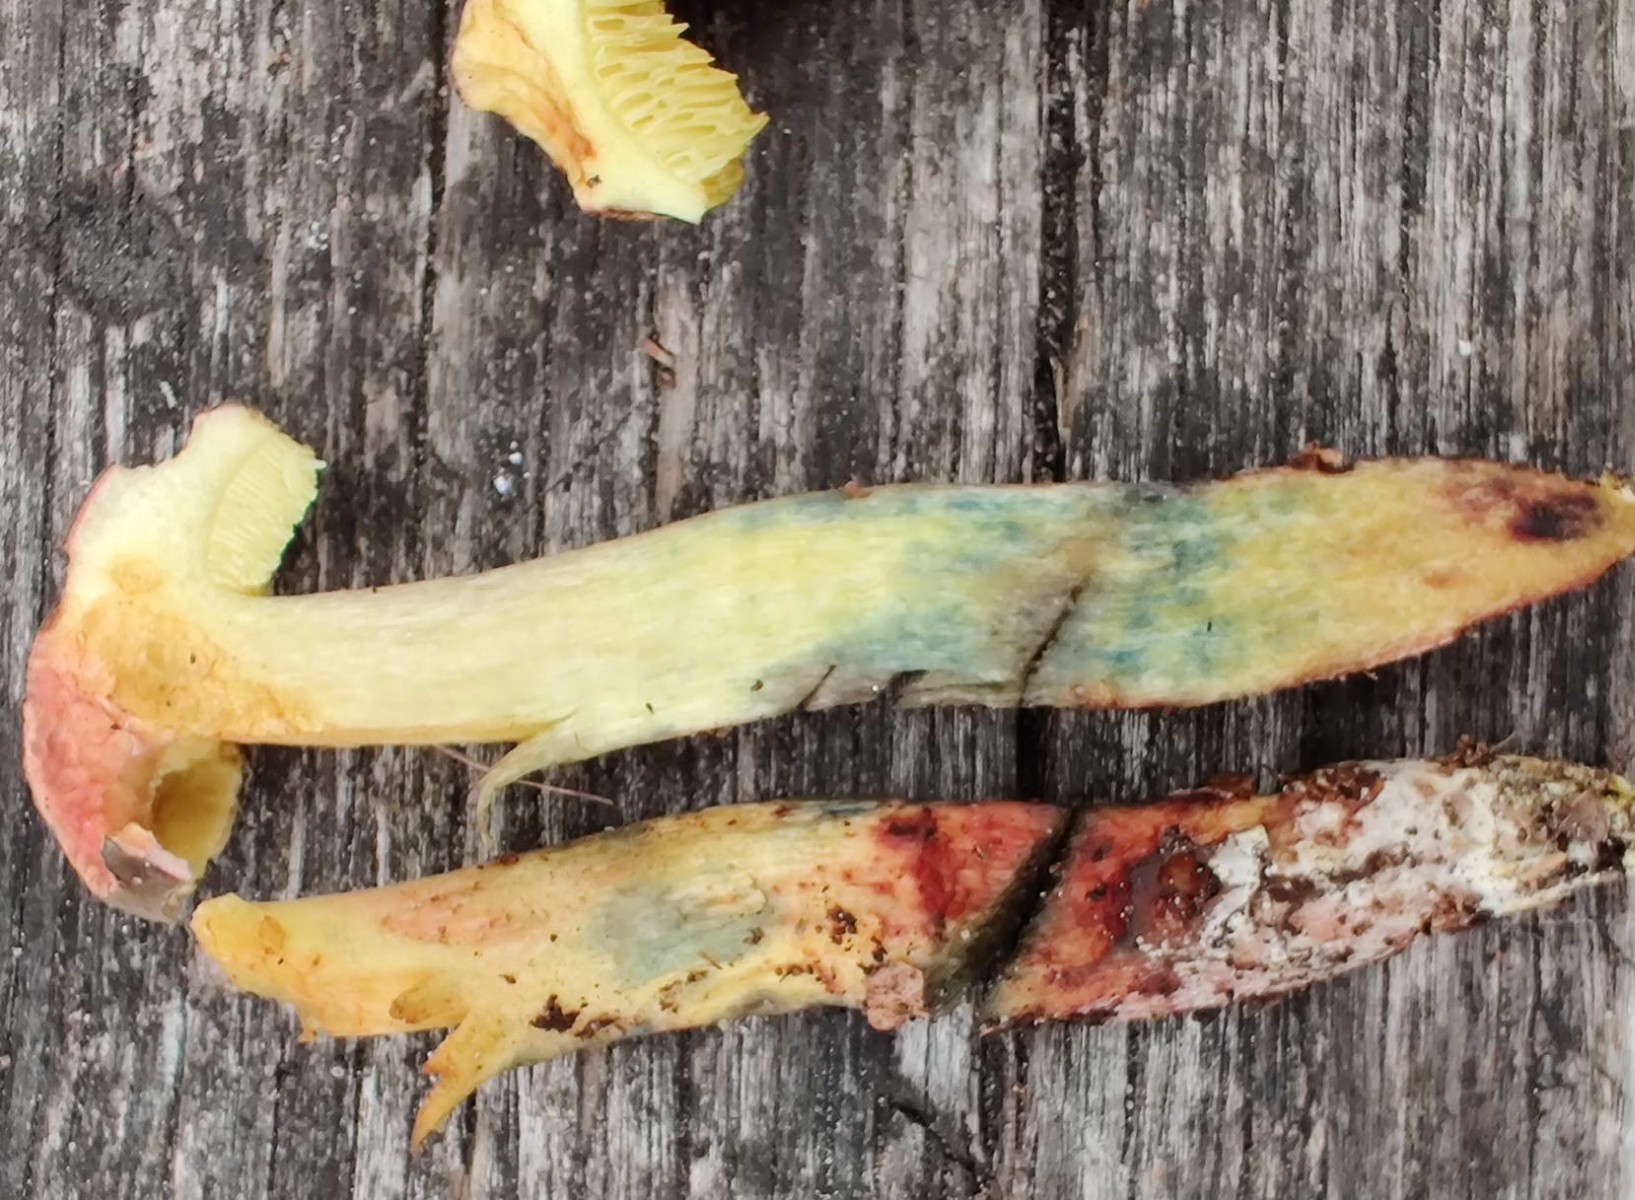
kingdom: Fungi
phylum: Basidiomycota
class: Agaricomycetes
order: Boletales
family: Boletaceae
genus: Xerocomellus
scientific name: Xerocomellus cisalpinus
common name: finsprukken rørhat
